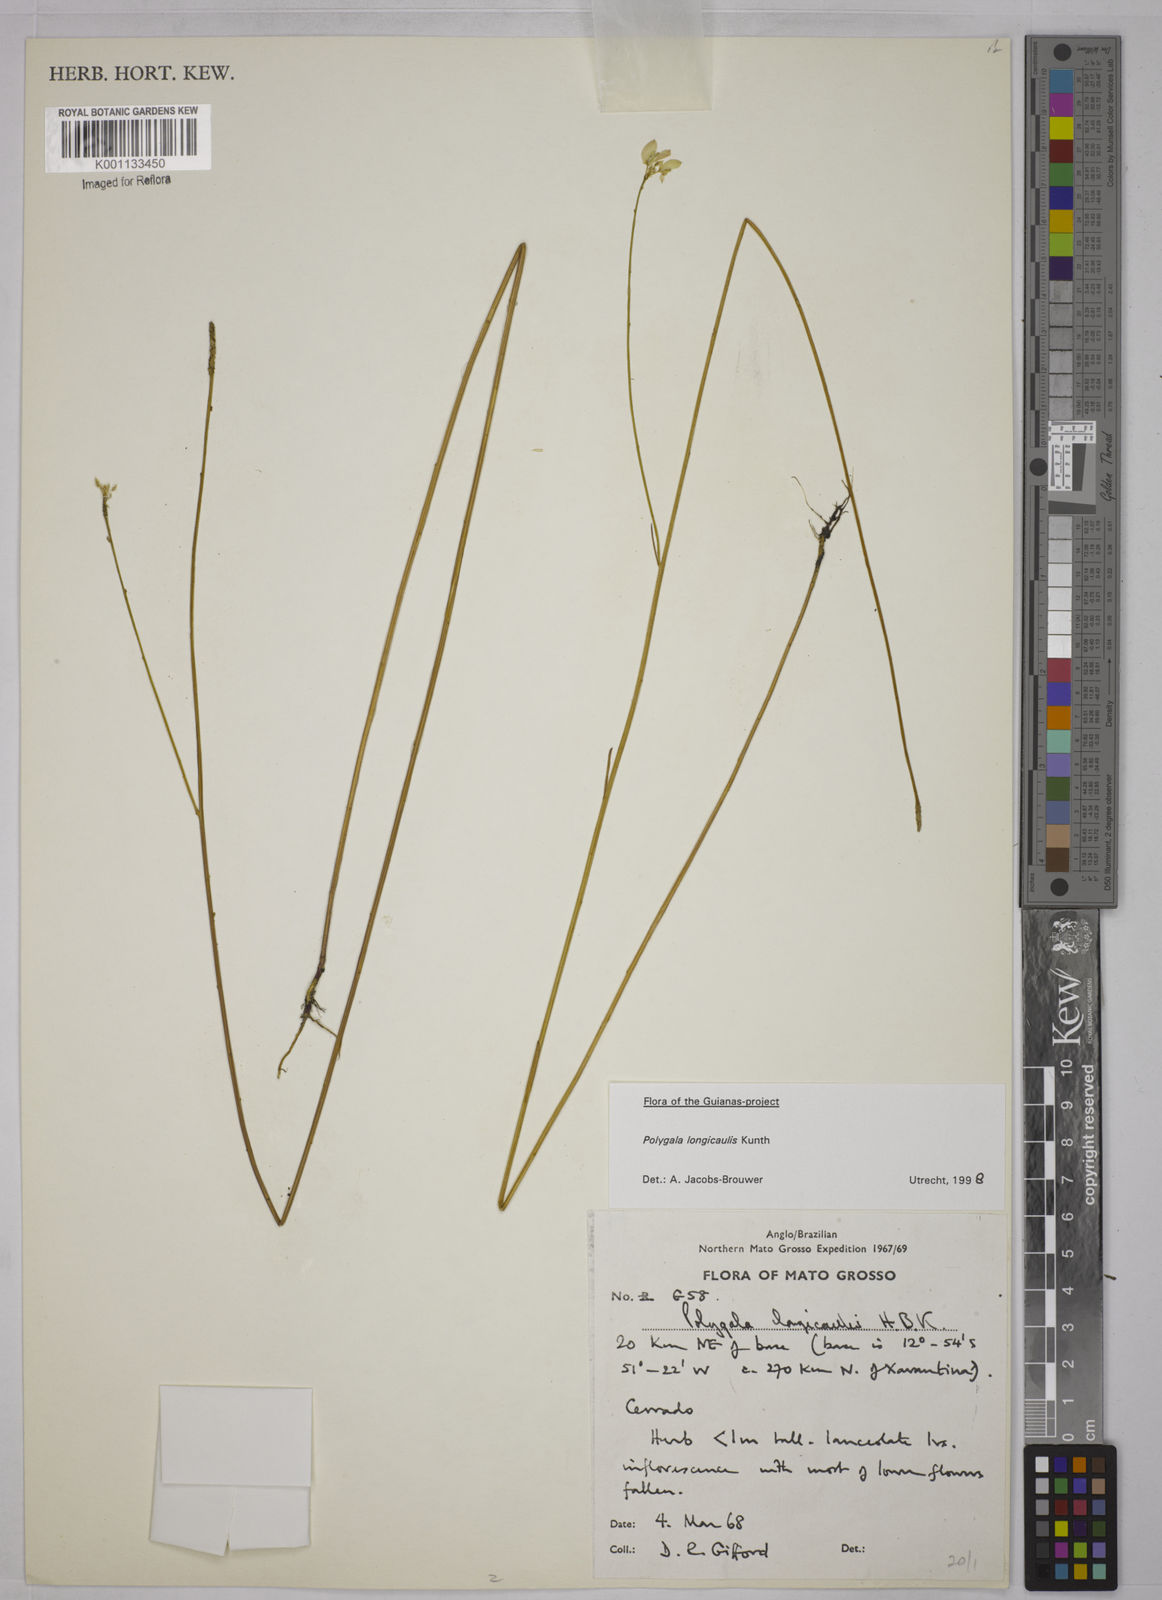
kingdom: Plantae
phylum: Tracheophyta
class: Magnoliopsida
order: Fabales
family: Polygalaceae
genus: Polygala
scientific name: Polygala longicaulis
